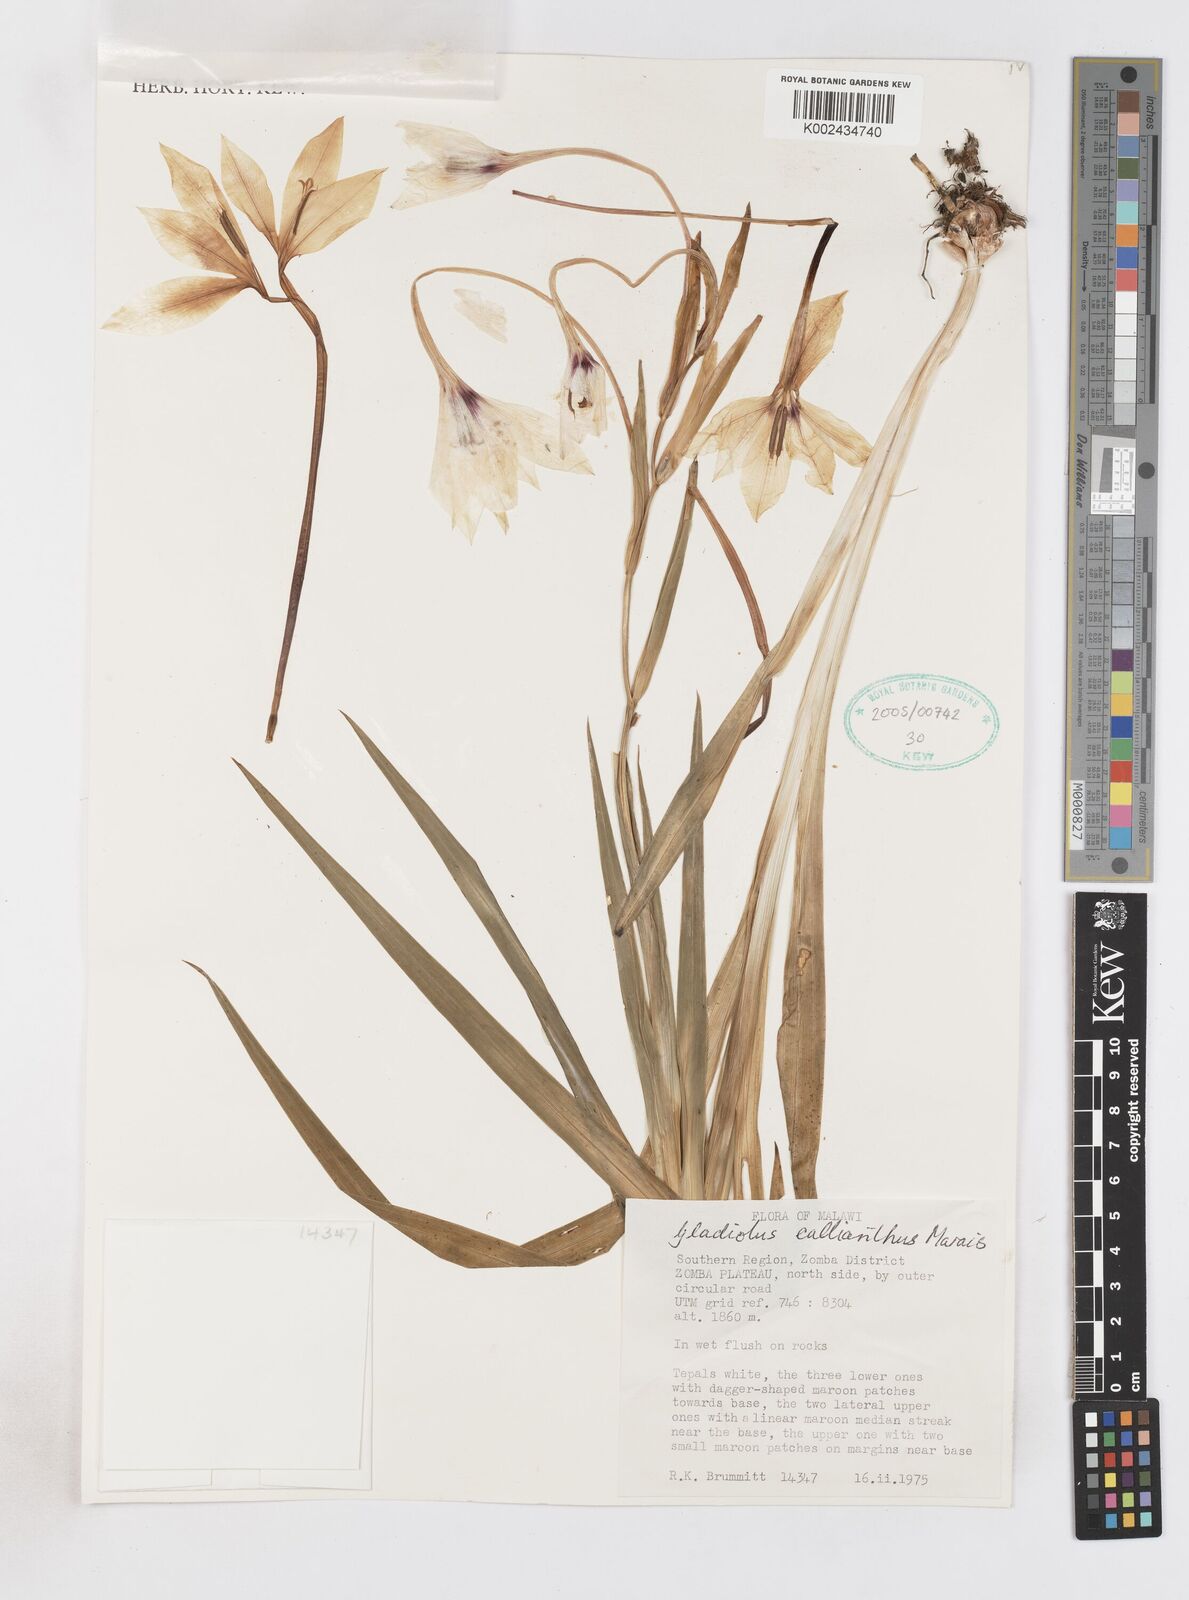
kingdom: Plantae
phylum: Tracheophyta
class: Liliopsida
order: Asparagales
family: Iridaceae
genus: Gladiolus
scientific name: Gladiolus murielae
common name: Acidanthera
